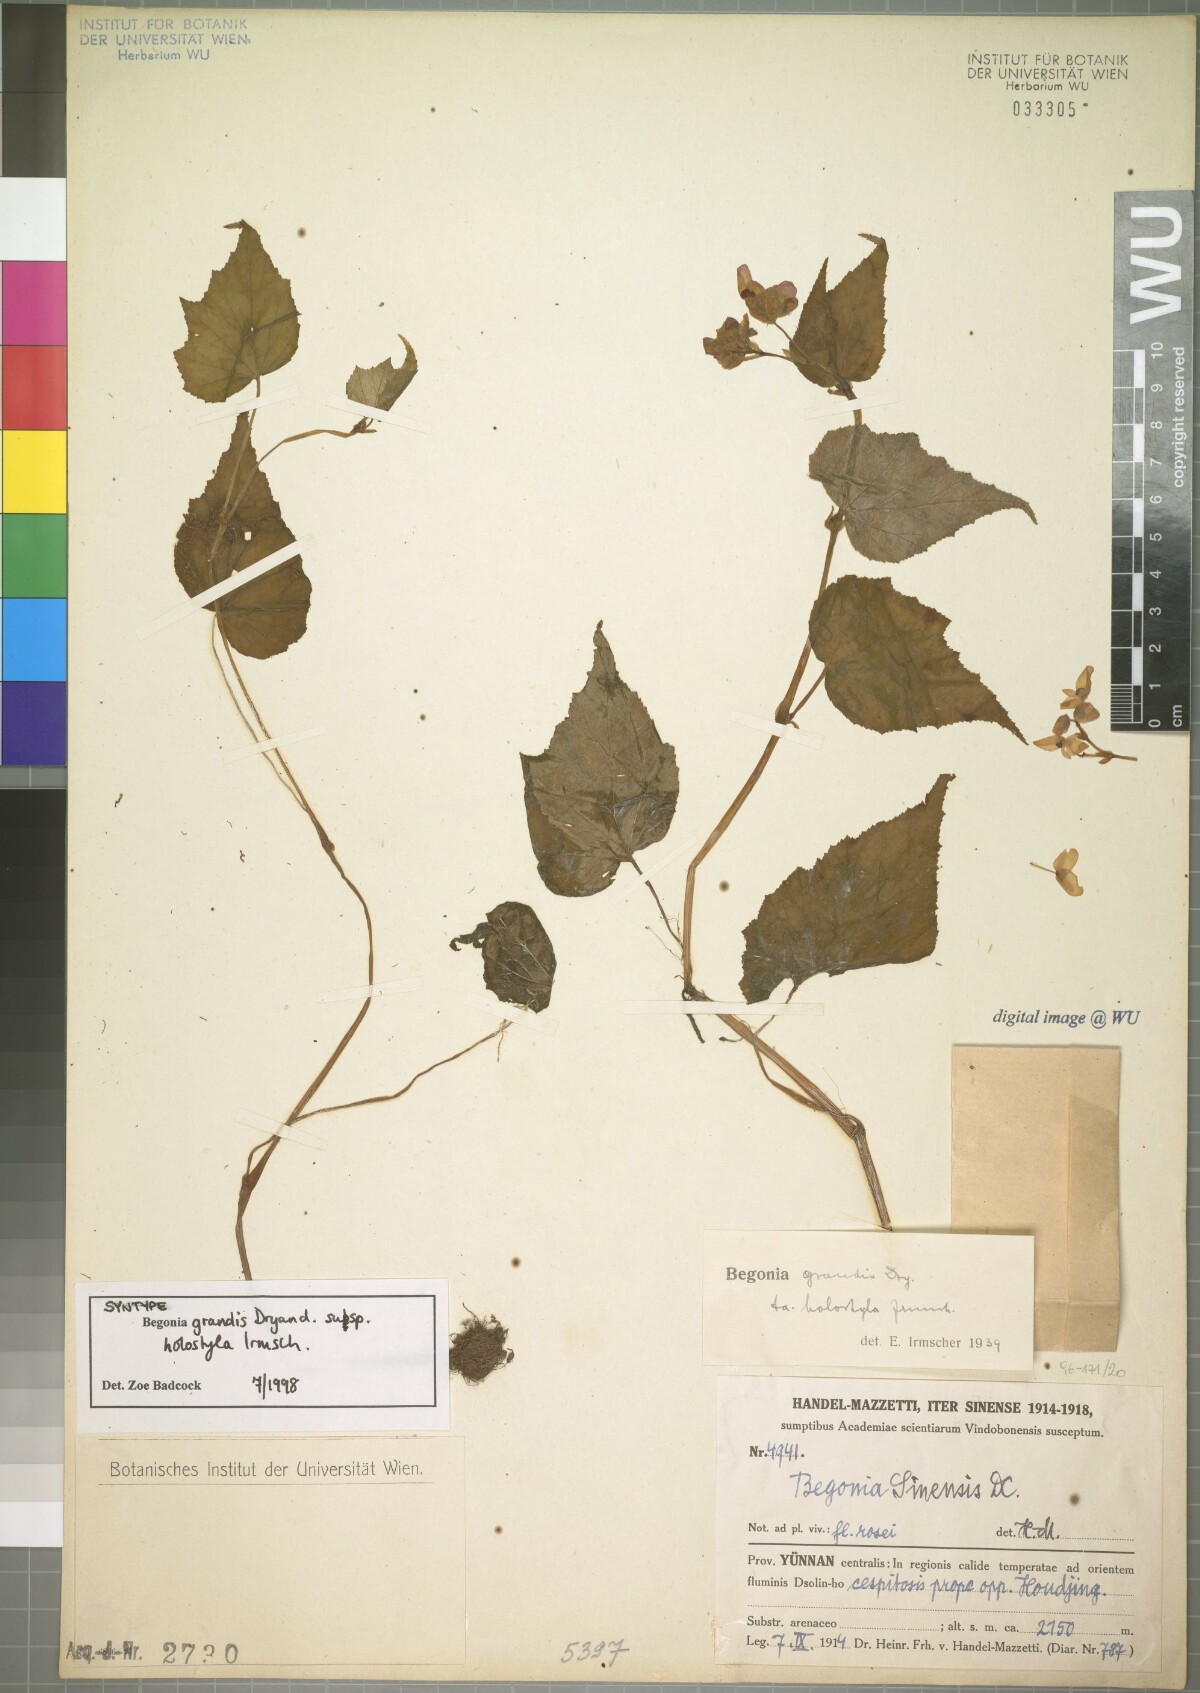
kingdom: Plantae
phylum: Tracheophyta
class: Magnoliopsida
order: Cucurbitales
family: Begoniaceae
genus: Begonia
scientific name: Begonia grandis
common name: Hardy begonia
